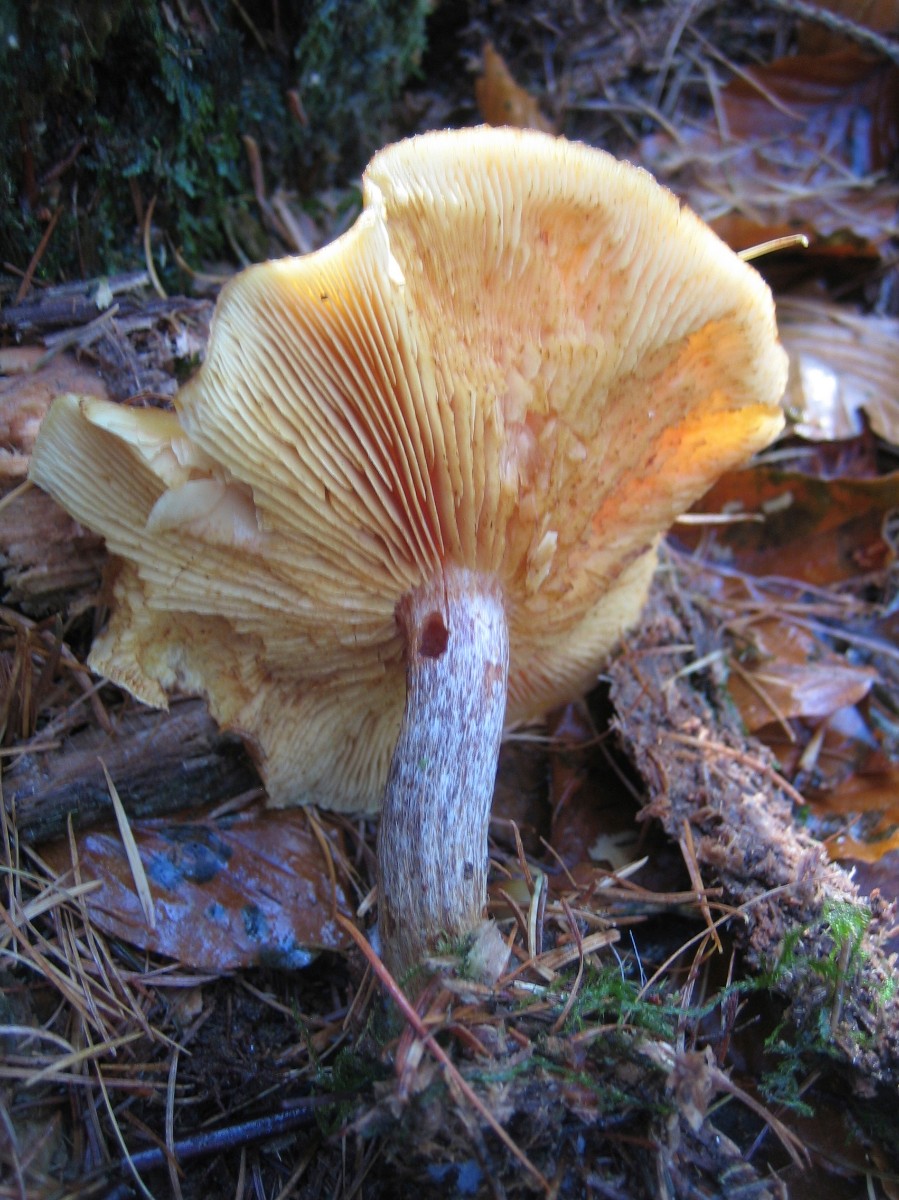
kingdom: Fungi
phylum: Basidiomycota
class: Agaricomycetes
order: Agaricales
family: Hymenogastraceae
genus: Gymnopilus
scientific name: Gymnopilus penetrans
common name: plettet flammehat
